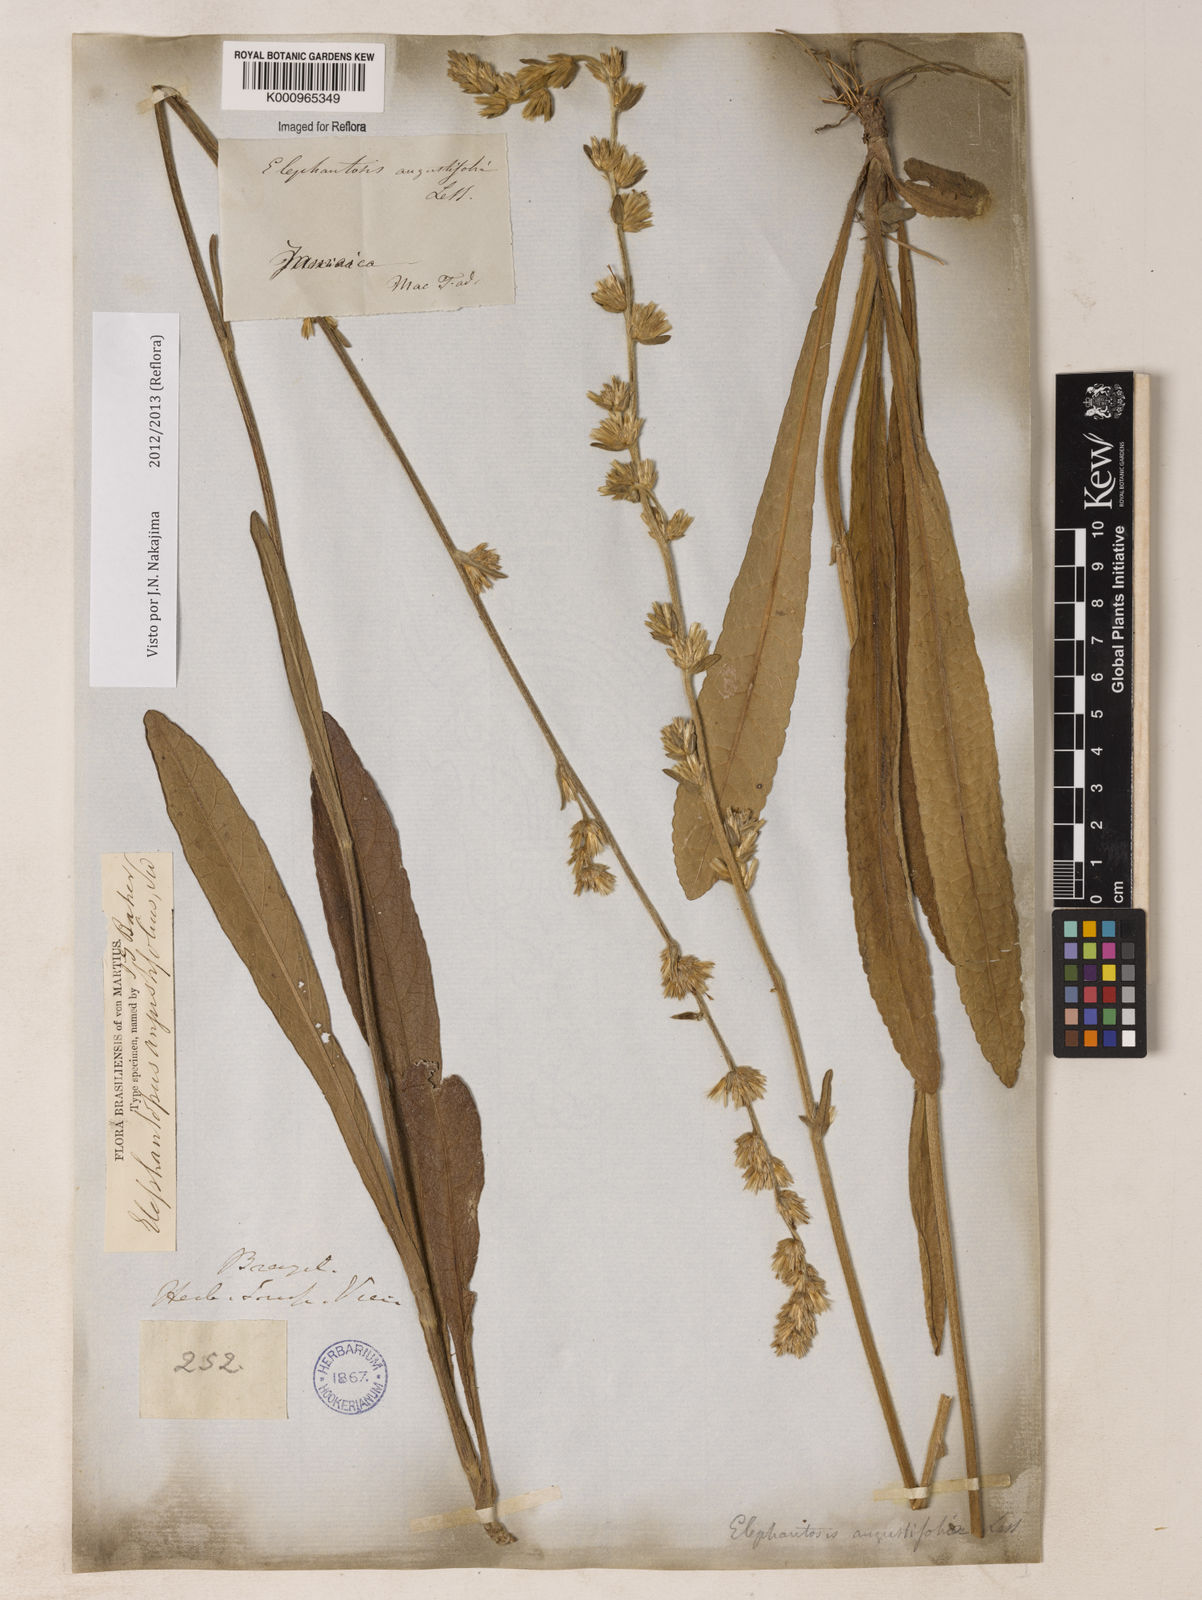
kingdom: Plantae
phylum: Tracheophyta
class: Magnoliopsida
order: Asterales
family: Asteraceae
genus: Orthopappus
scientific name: Orthopappus angustifolius
